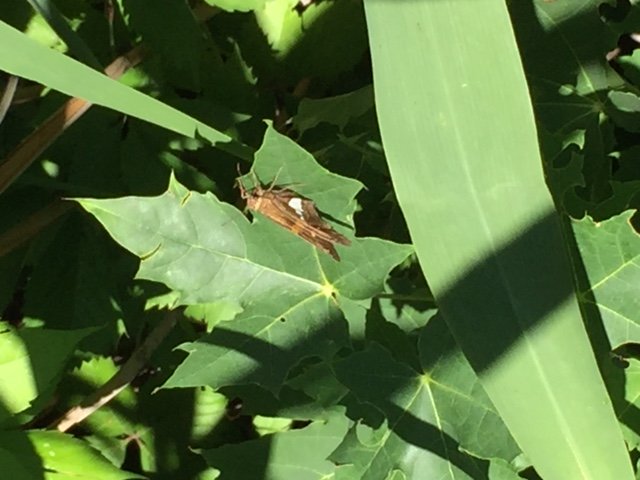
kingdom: Animalia
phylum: Arthropoda
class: Insecta
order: Lepidoptera
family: Hesperiidae
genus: Epargyreus
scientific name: Epargyreus clarus
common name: Silver-spotted Skipper
